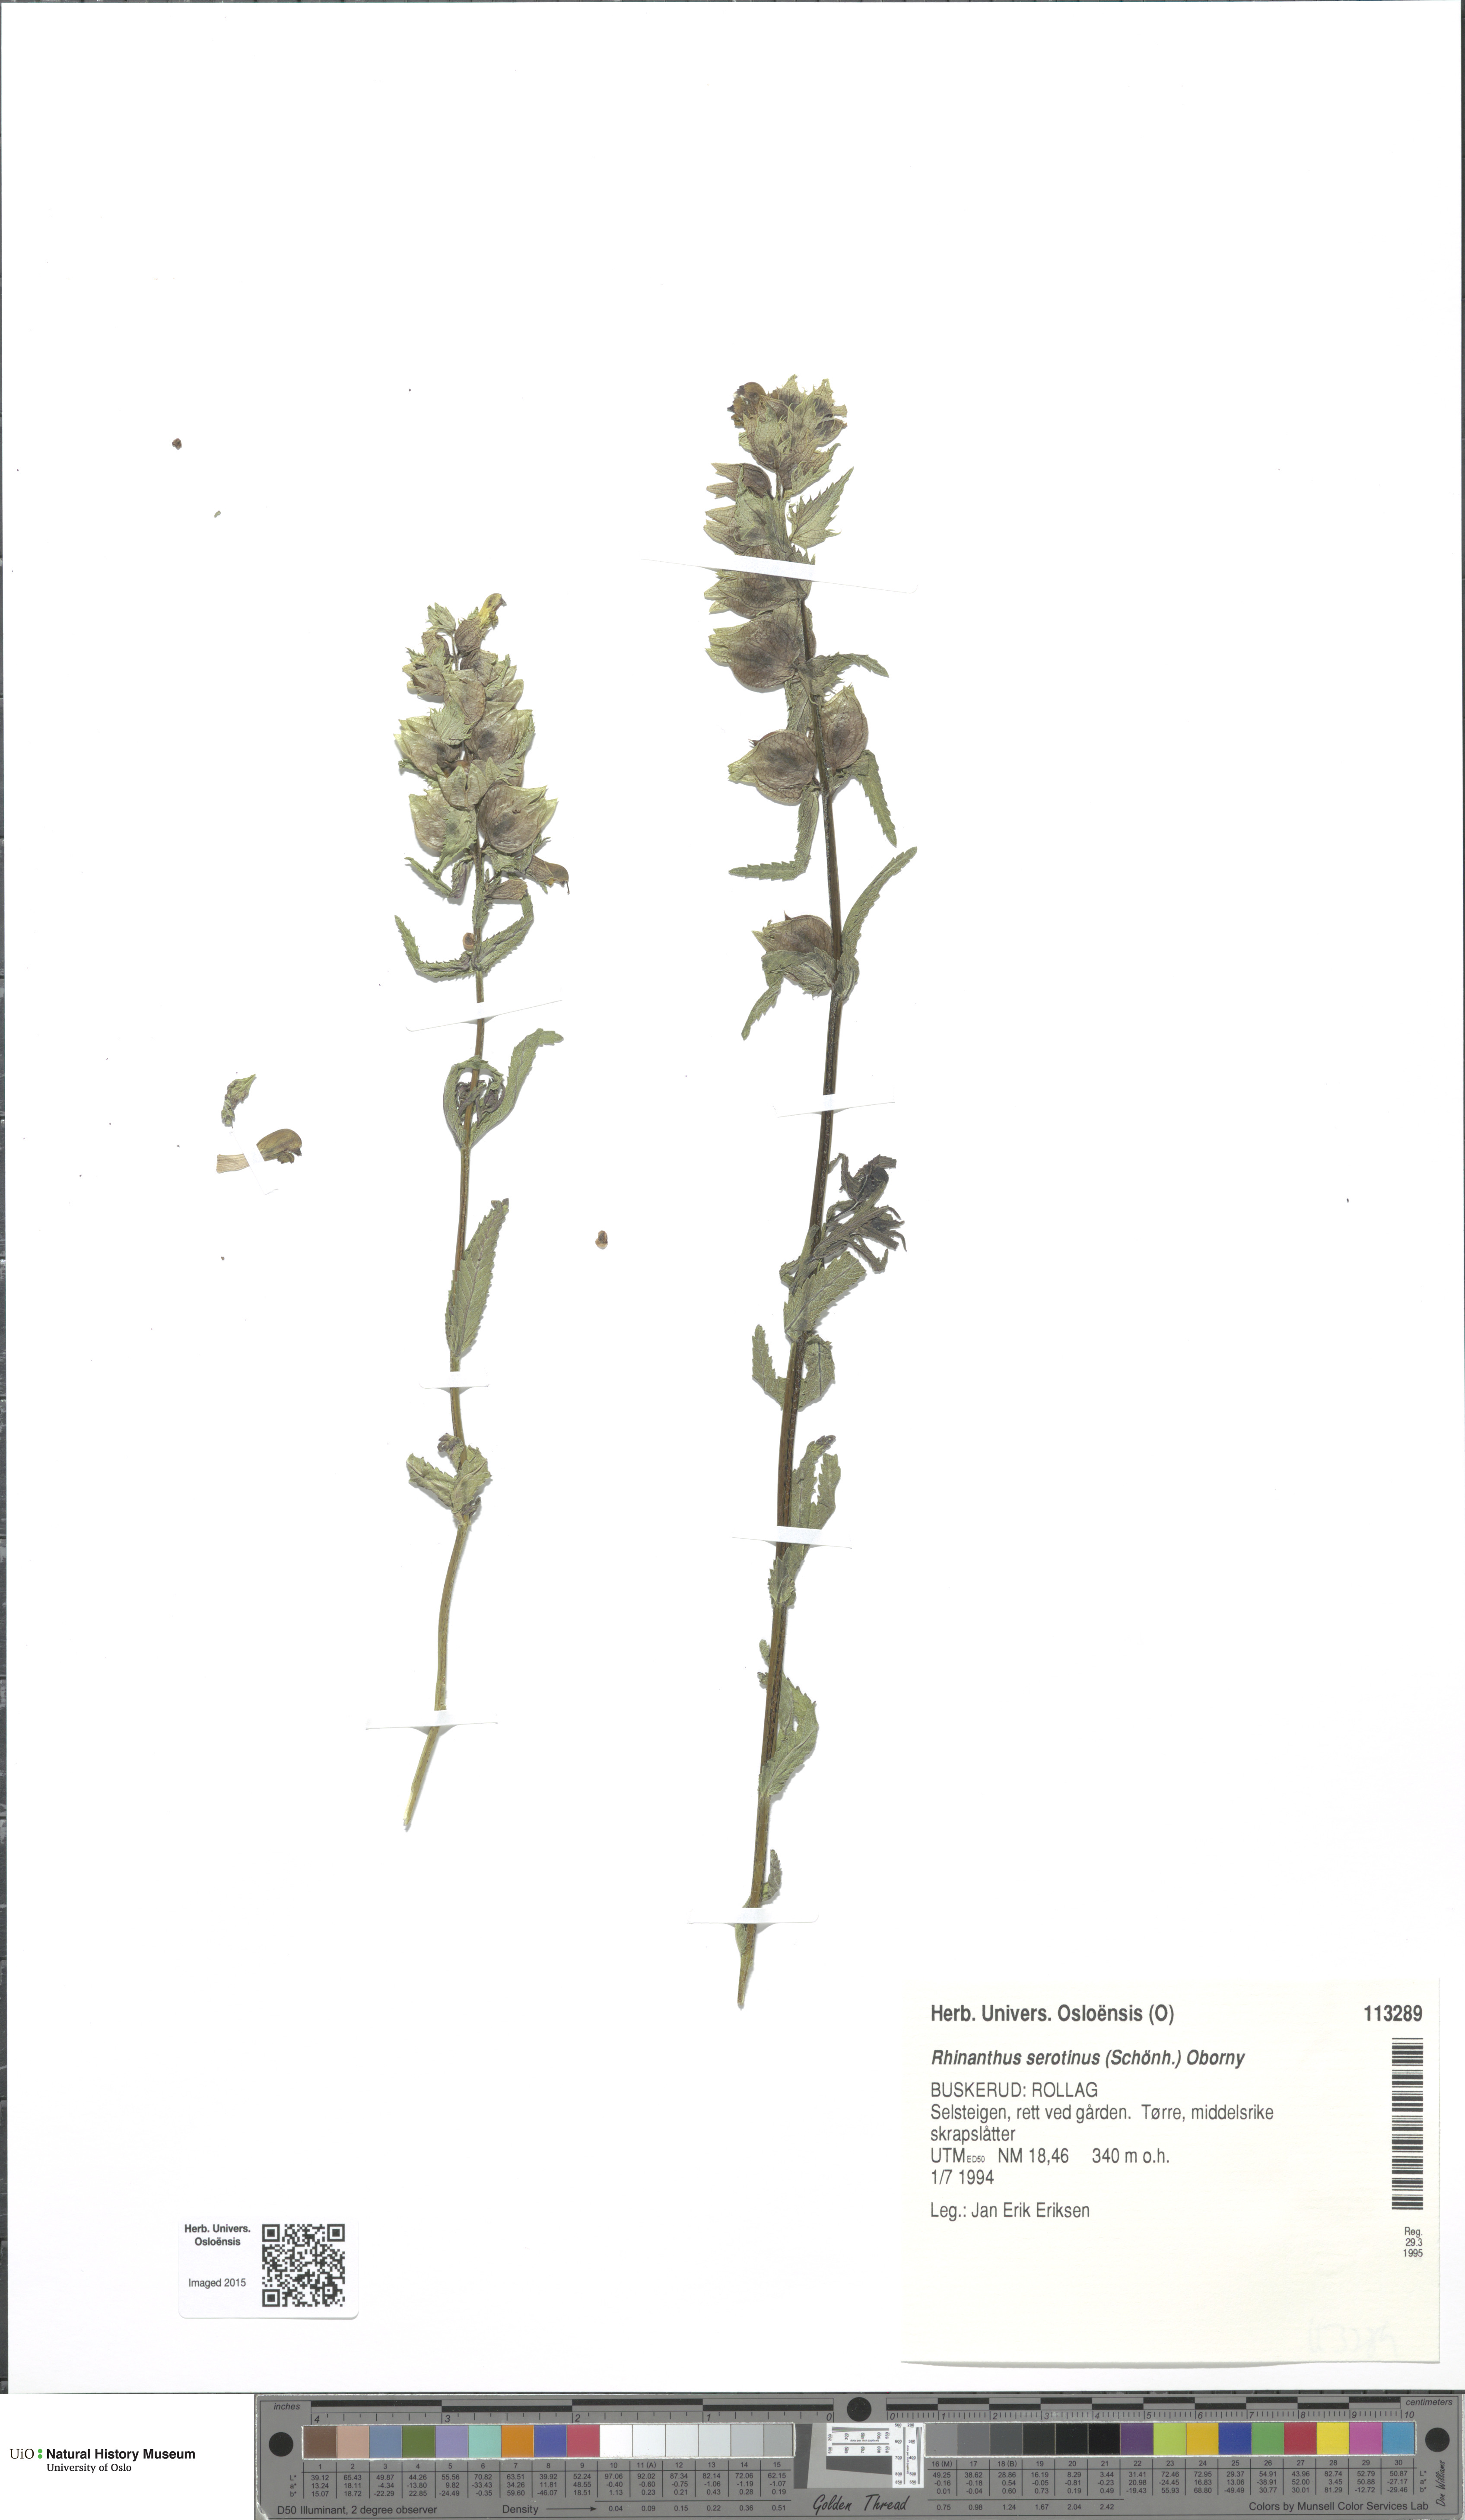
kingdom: Plantae
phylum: Tracheophyta
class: Magnoliopsida
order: Lamiales
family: Orobanchaceae
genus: Rhinanthus
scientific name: Rhinanthus
